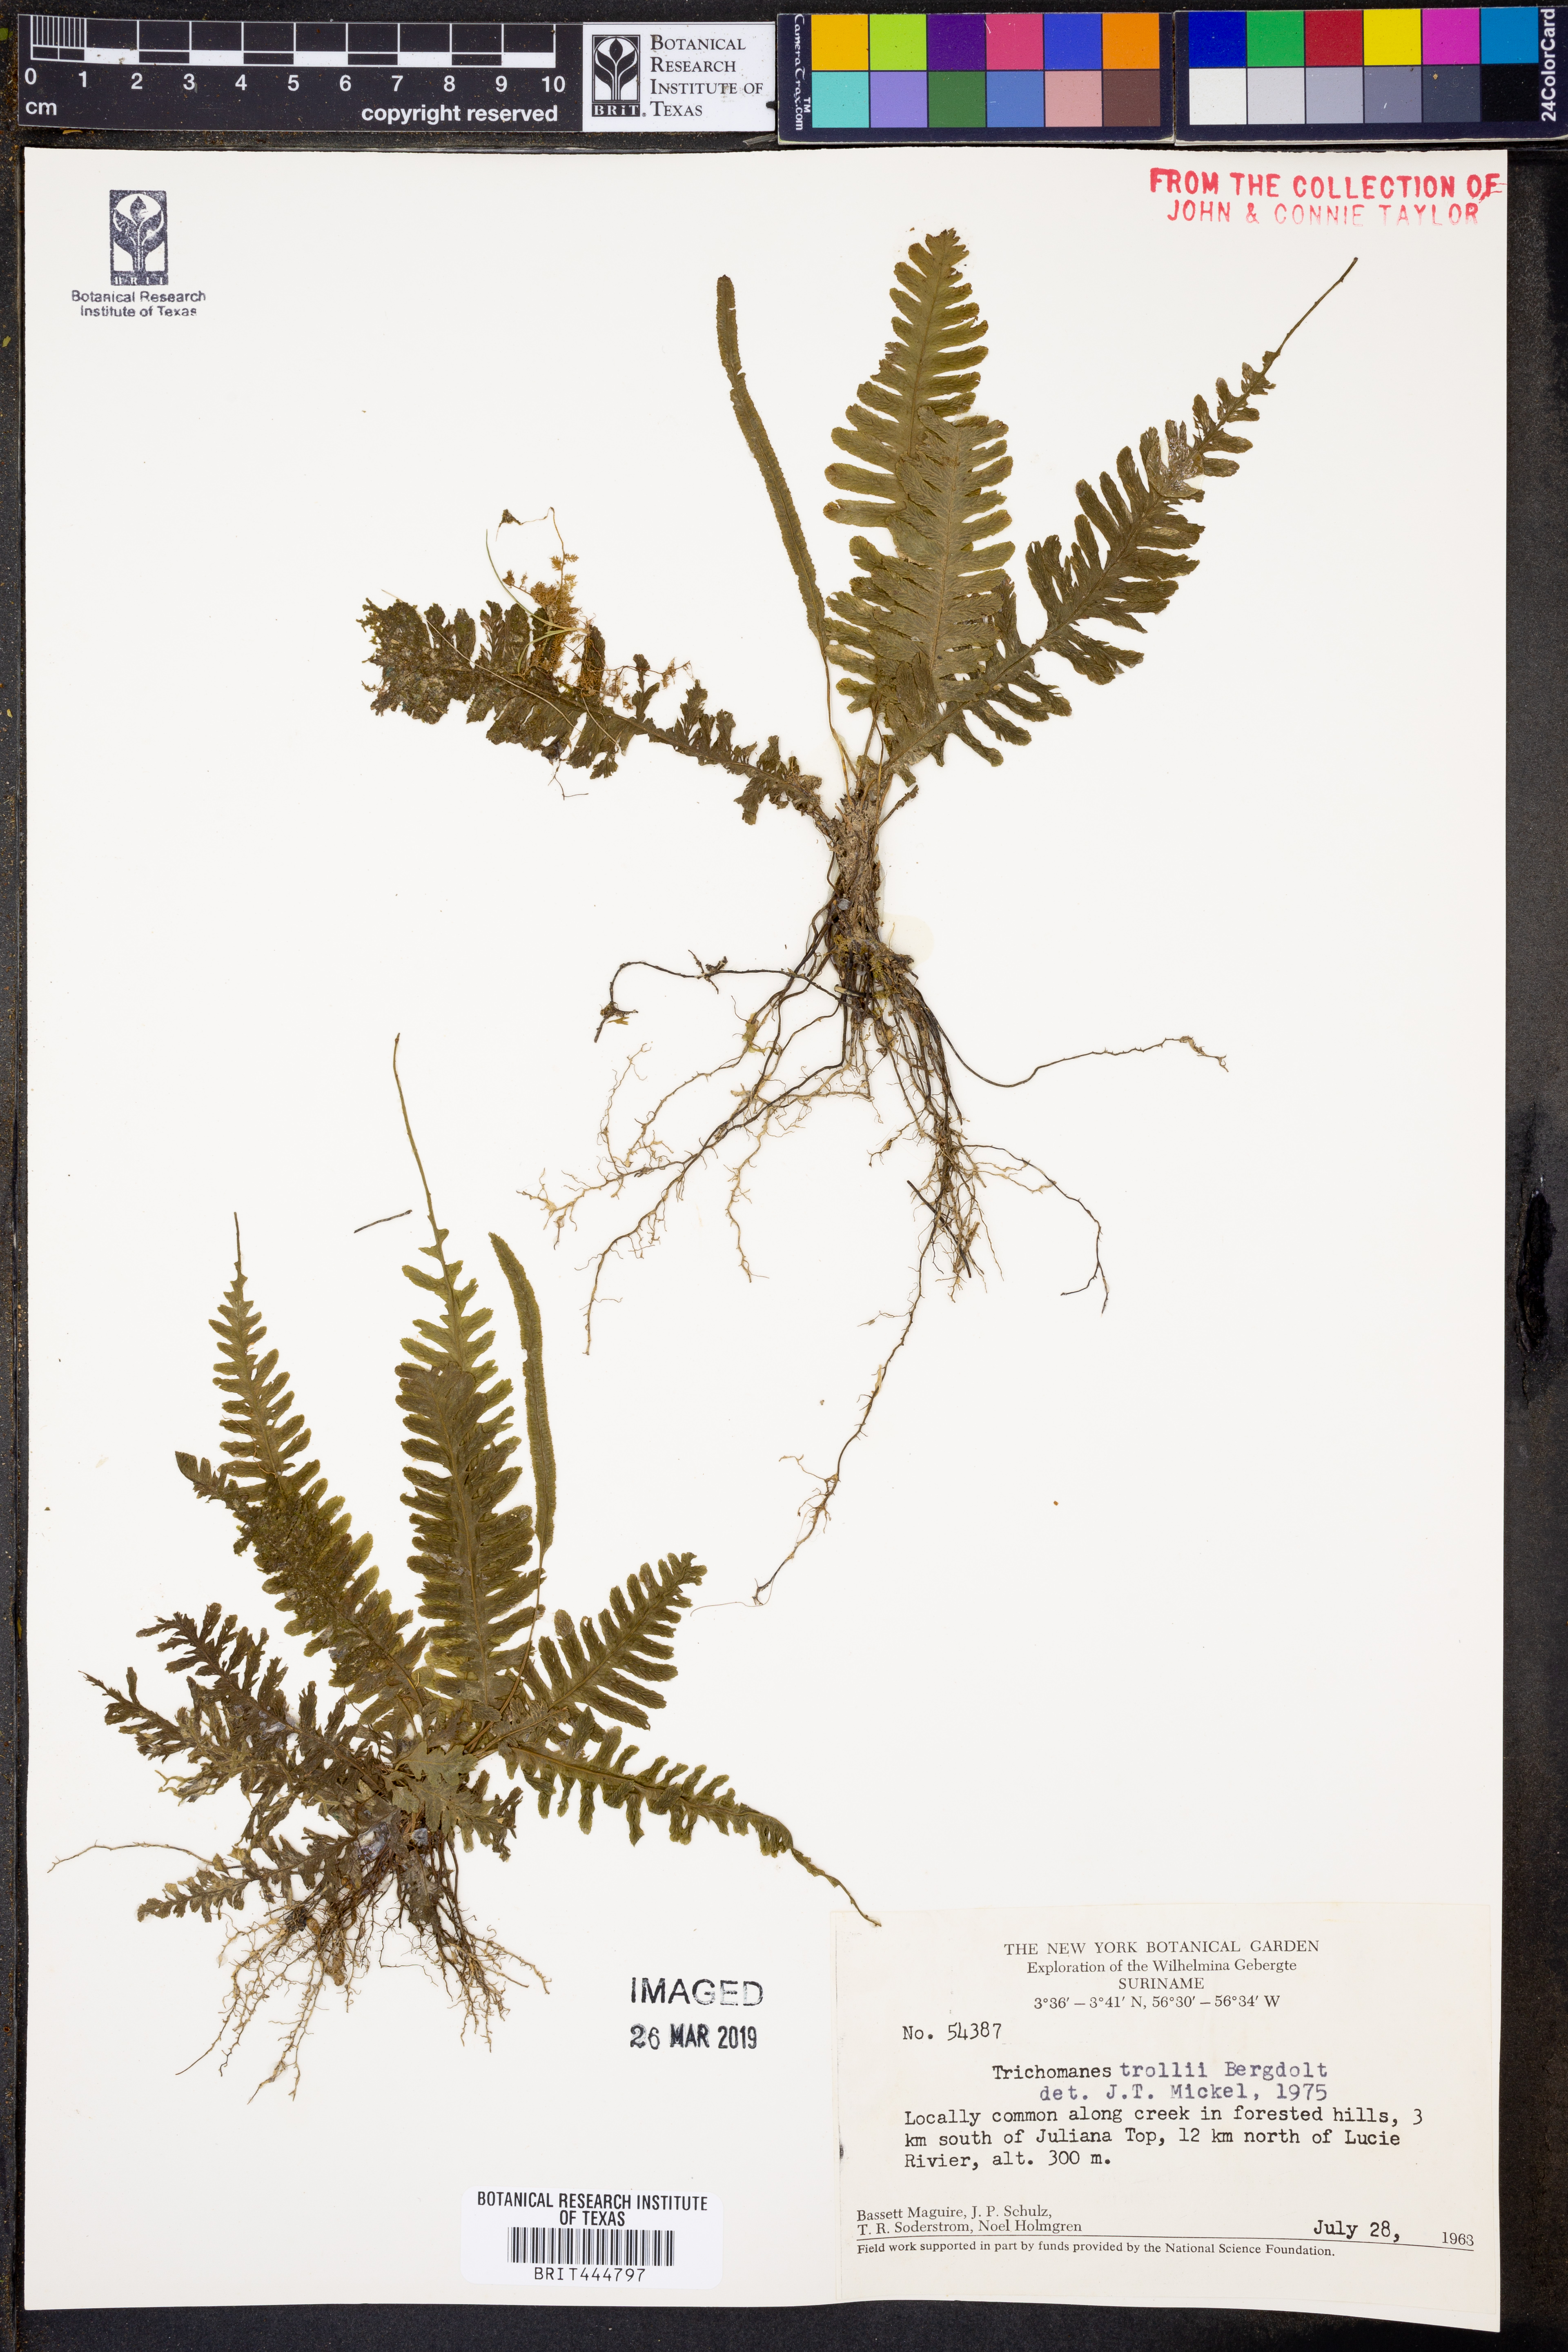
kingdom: Plantae
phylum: Tracheophyta
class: Polypodiopsida
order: Hymenophyllales
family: Hymenophyllaceae
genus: Trichomanes
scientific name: Trichomanes trollii
